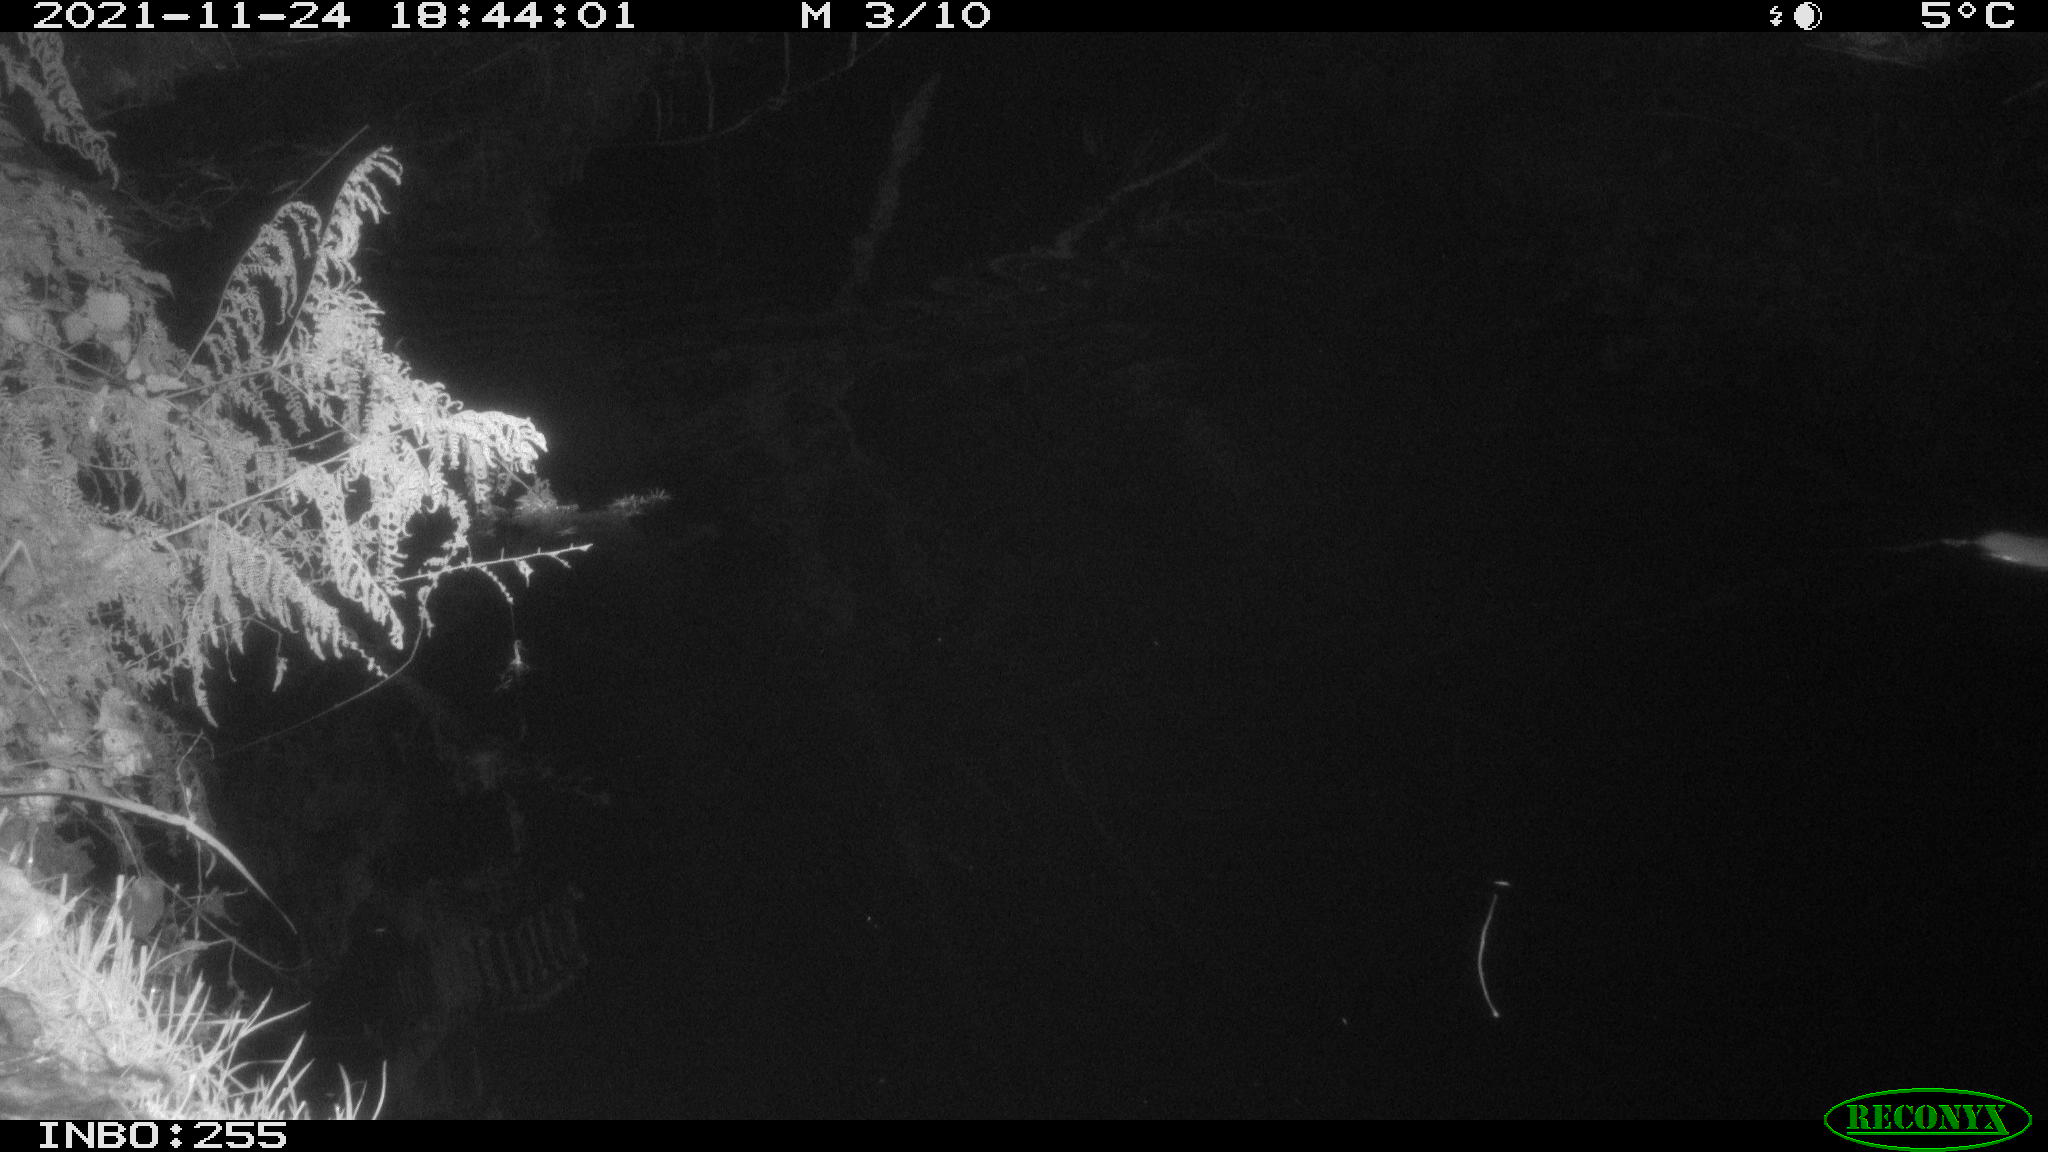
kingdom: Animalia
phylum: Chordata
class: Mammalia
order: Rodentia
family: Muridae
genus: Rattus
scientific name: Rattus norvegicus
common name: Brown rat
